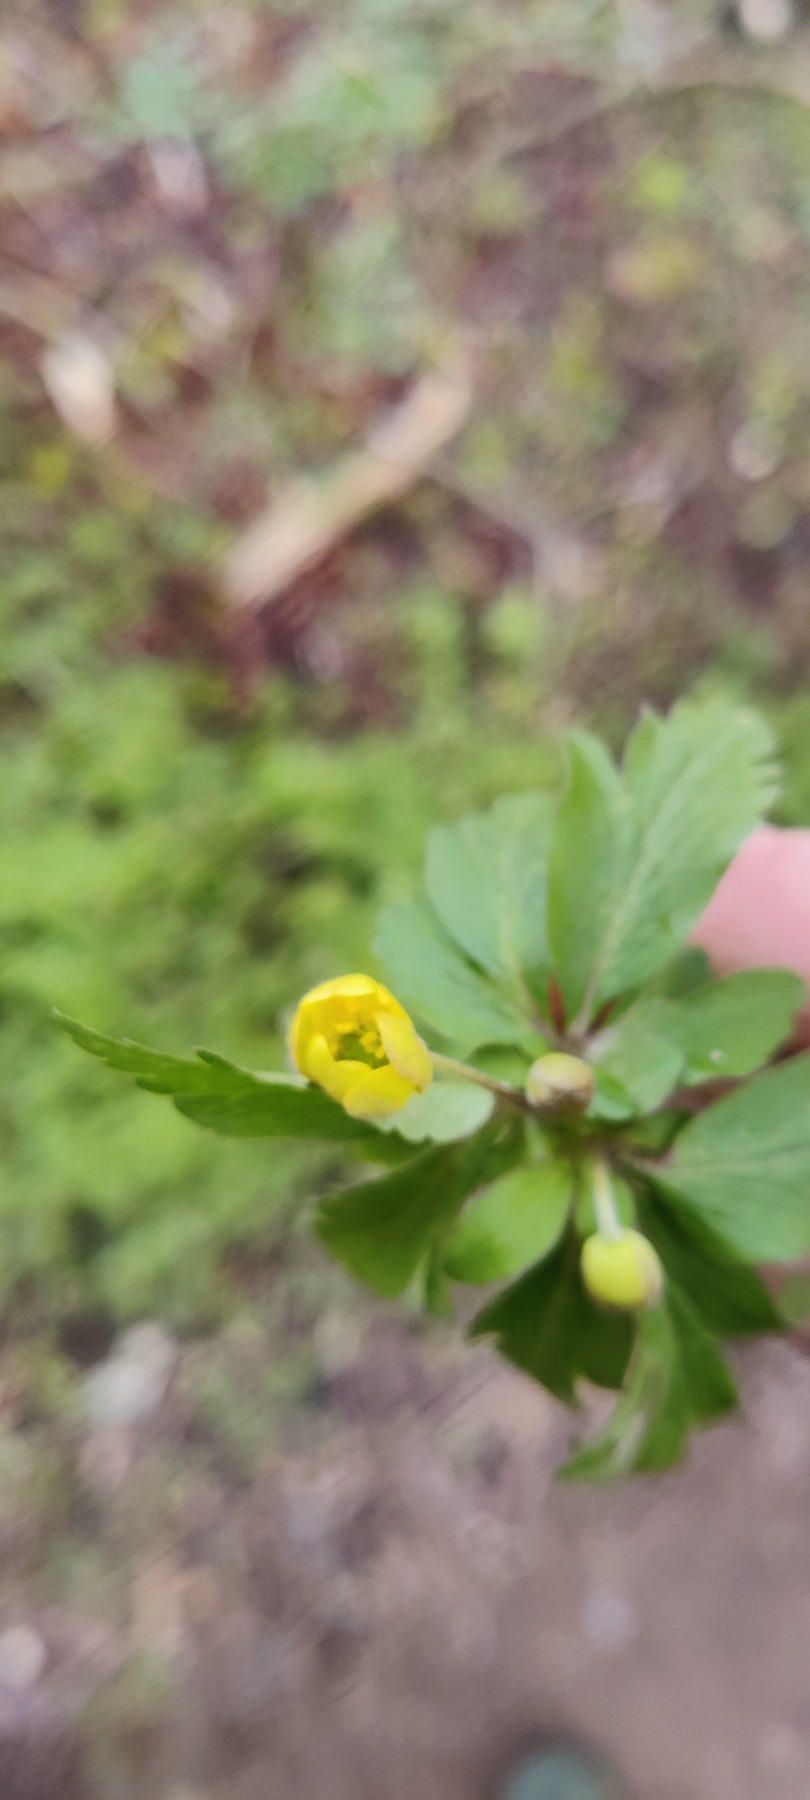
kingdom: Plantae
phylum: Tracheophyta
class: Magnoliopsida
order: Ranunculales
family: Ranunculaceae
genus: Anemone
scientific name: Anemone ranunculoides
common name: Gul anemone
